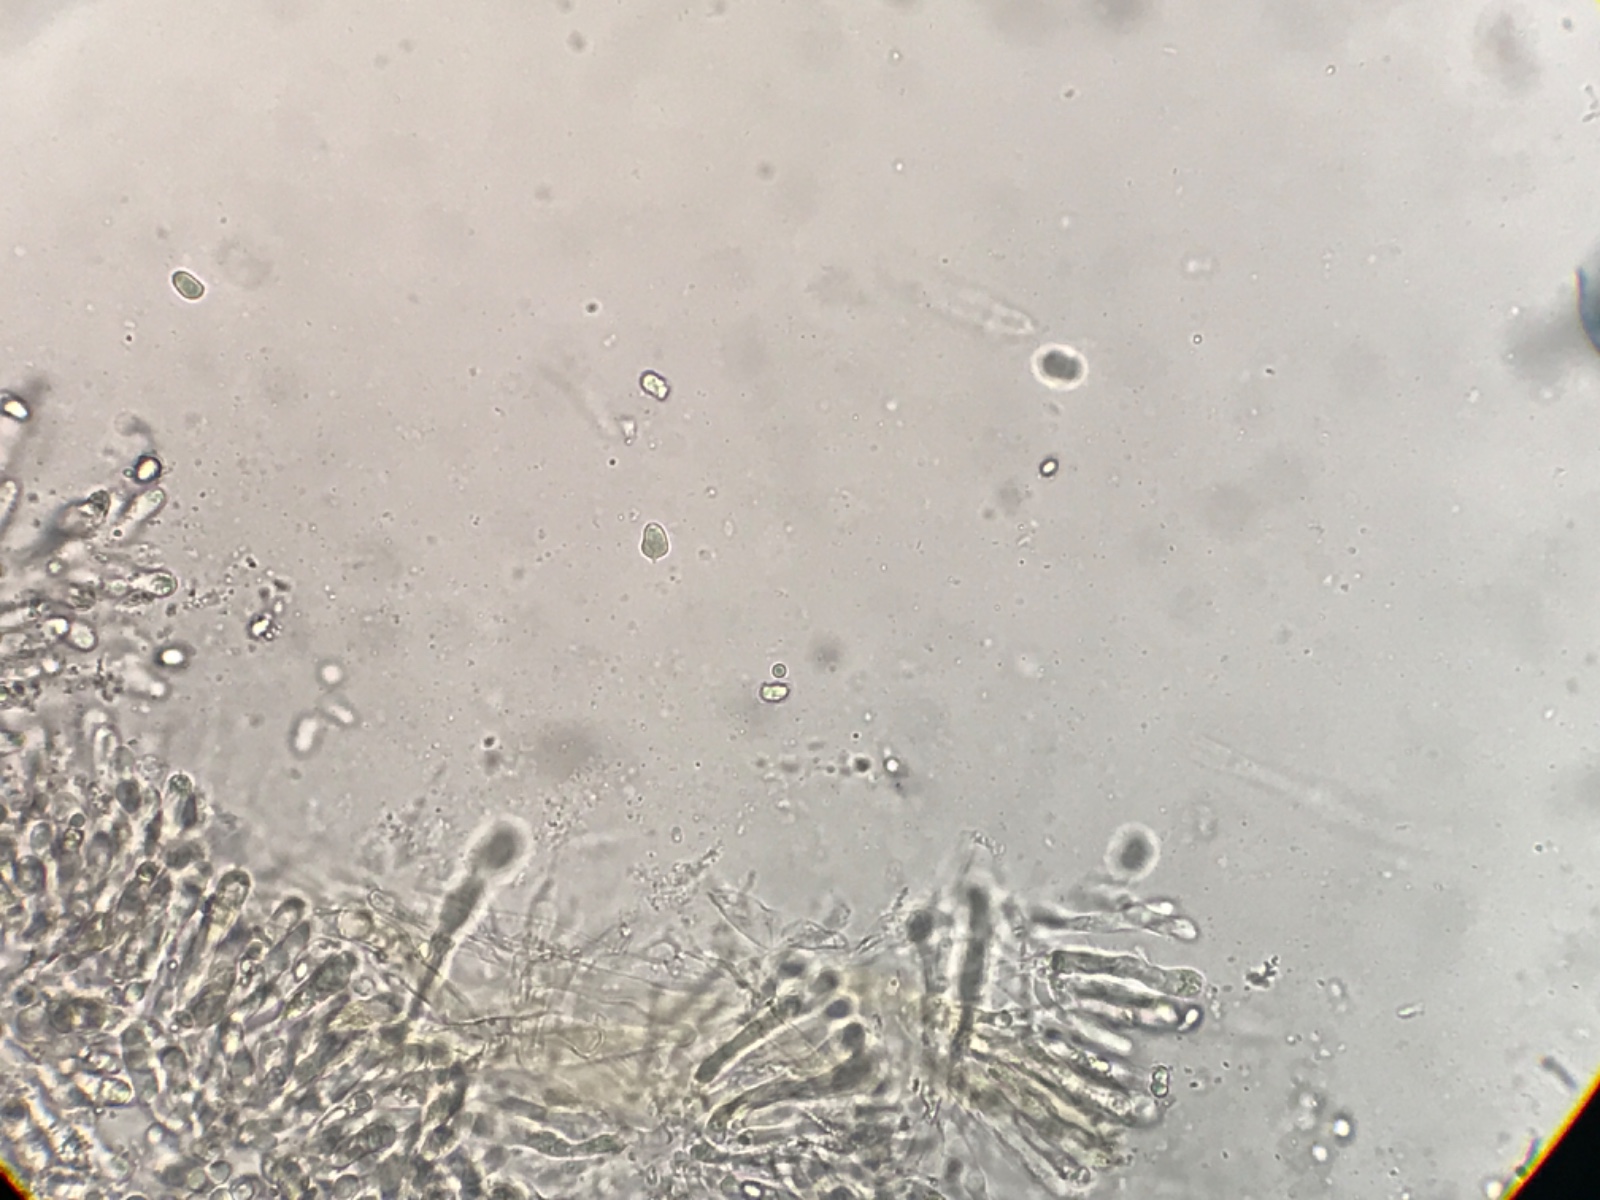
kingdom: Fungi
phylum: Basidiomycota
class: Agaricomycetes
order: Agaricales
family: Hygrophoraceae
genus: Hygrocybe
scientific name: Hygrocybe miniata
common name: mønje-vokshat
